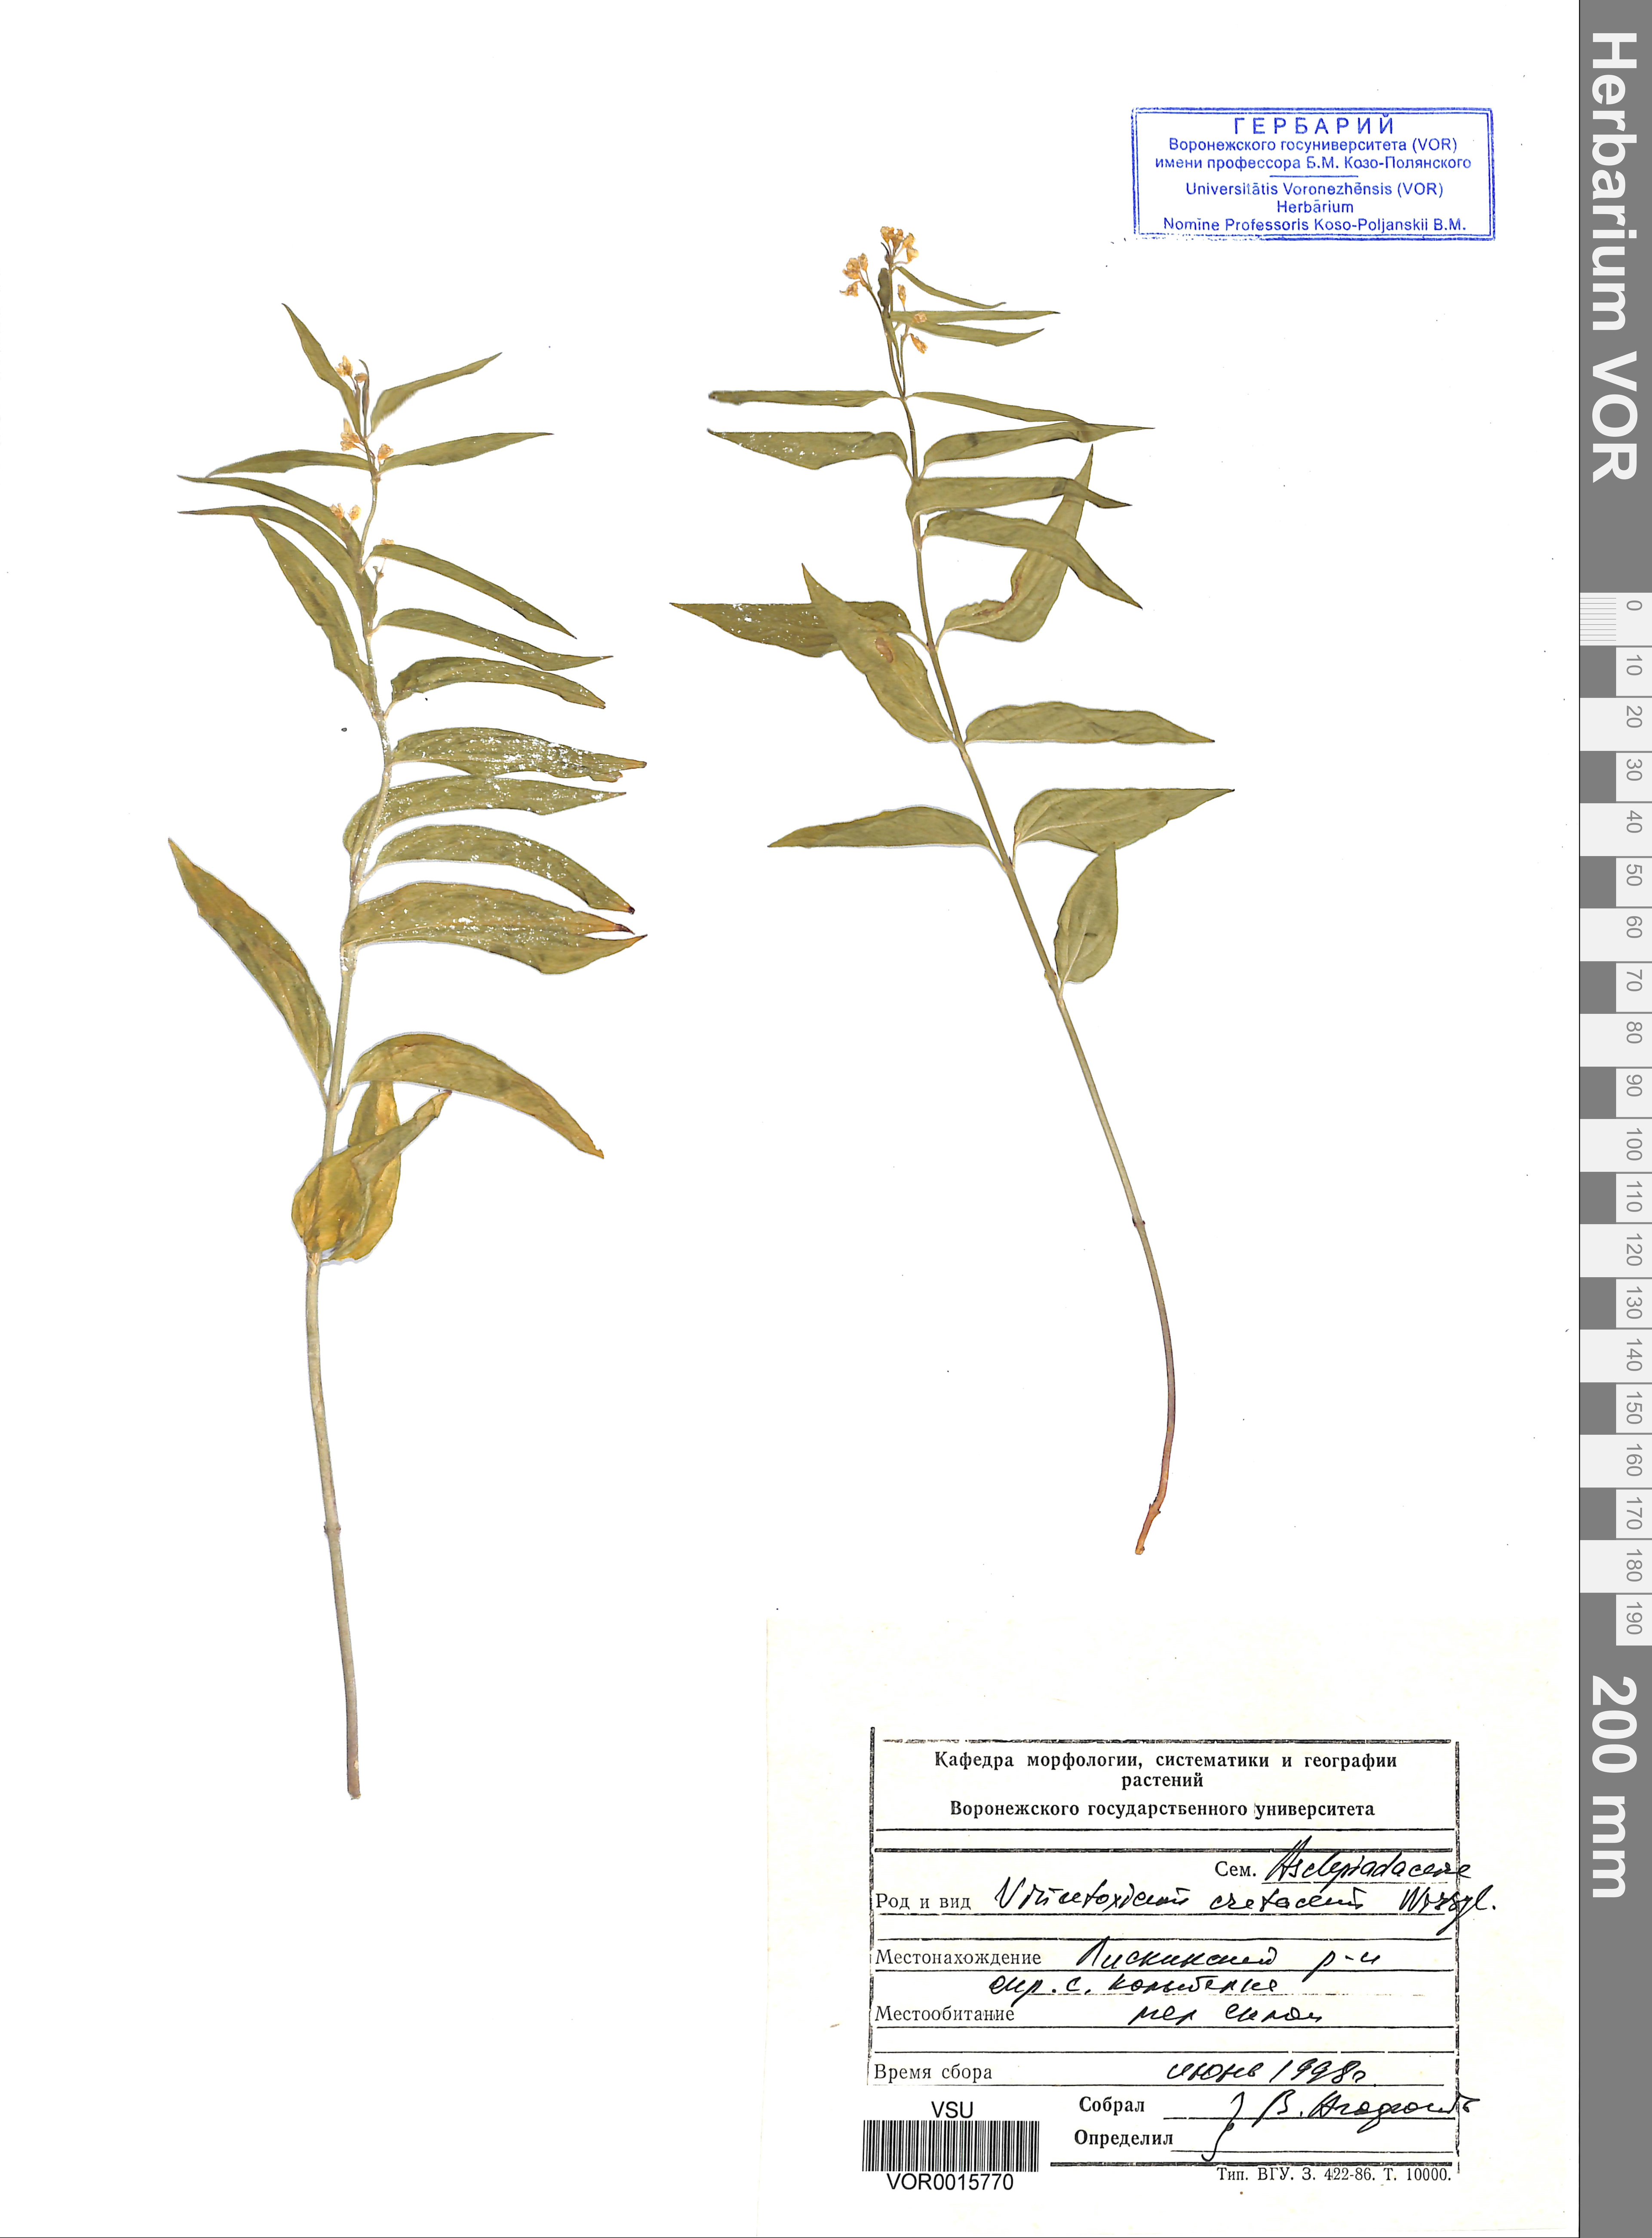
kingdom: Plantae
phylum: Tracheophyta
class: Magnoliopsida
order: Gentianales
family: Apocynaceae
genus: Vincetoxicum
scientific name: Vincetoxicum hirundinaria
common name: White swallowwort
